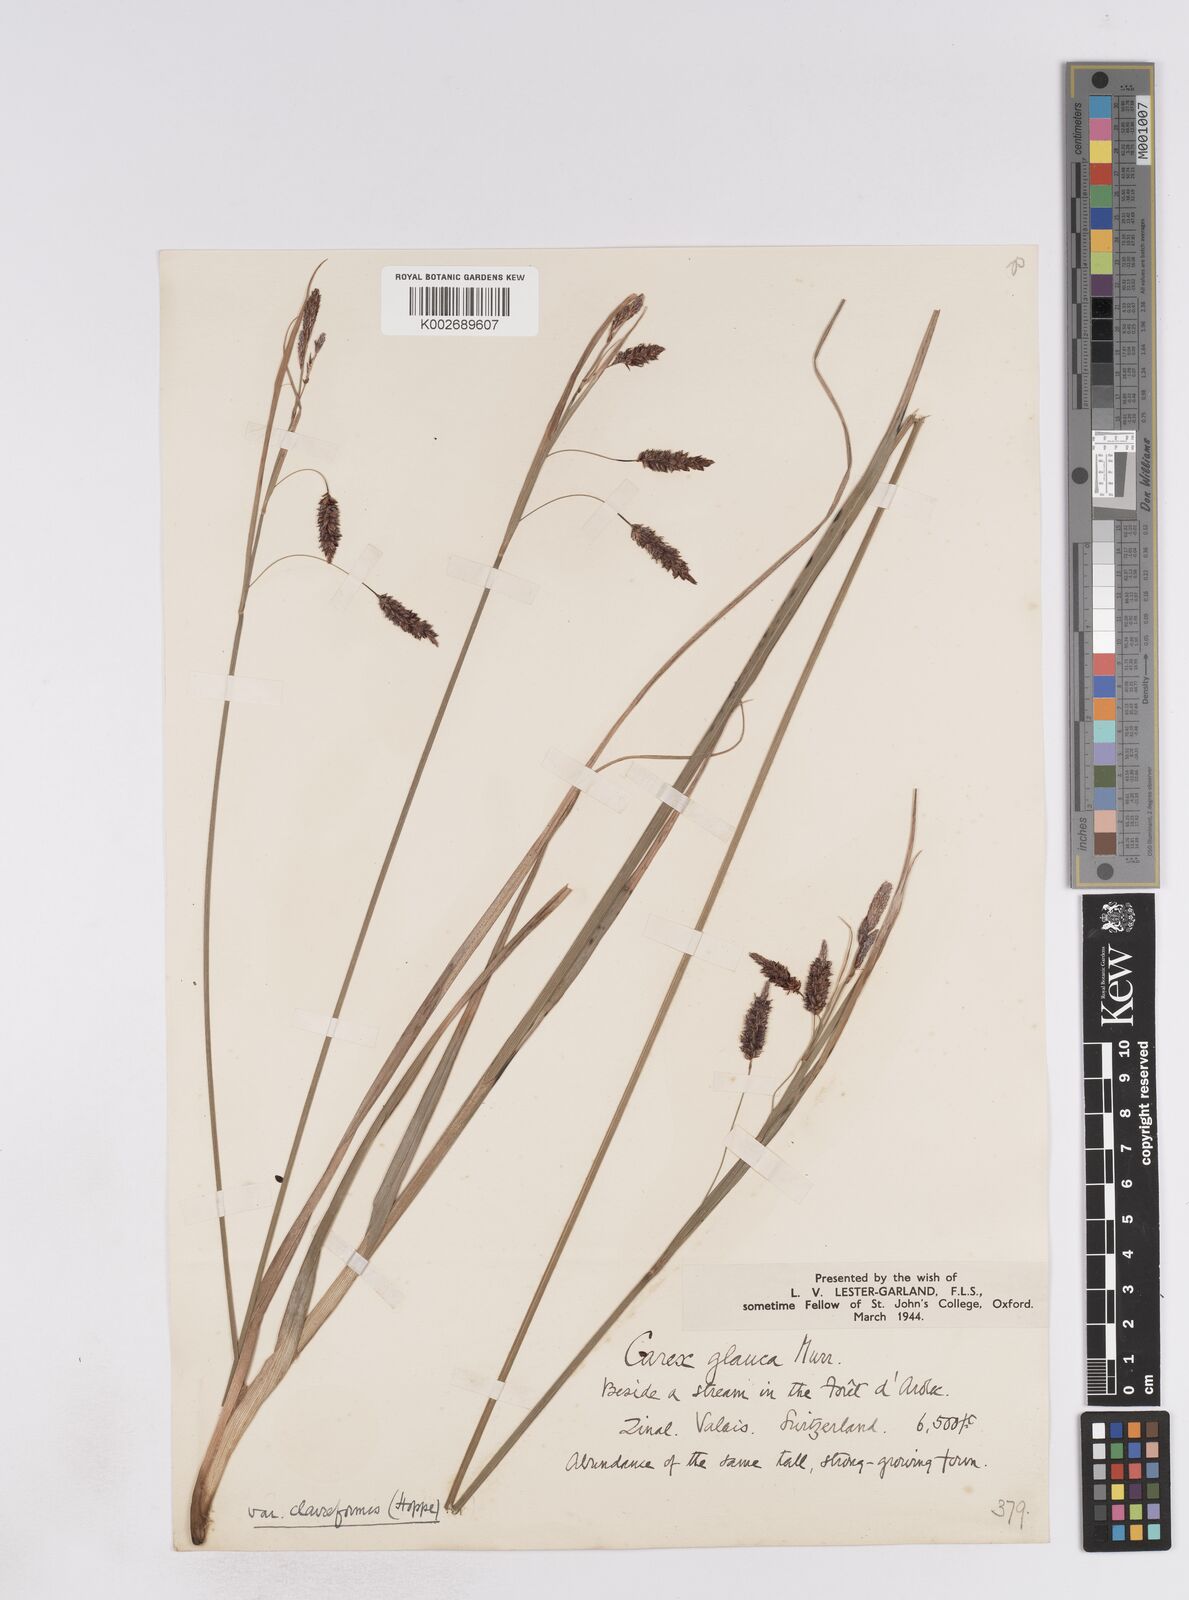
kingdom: Plantae
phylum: Tracheophyta
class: Liliopsida
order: Poales
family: Cyperaceae
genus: Carex
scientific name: Carex flacca
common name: Glaucous sedge
